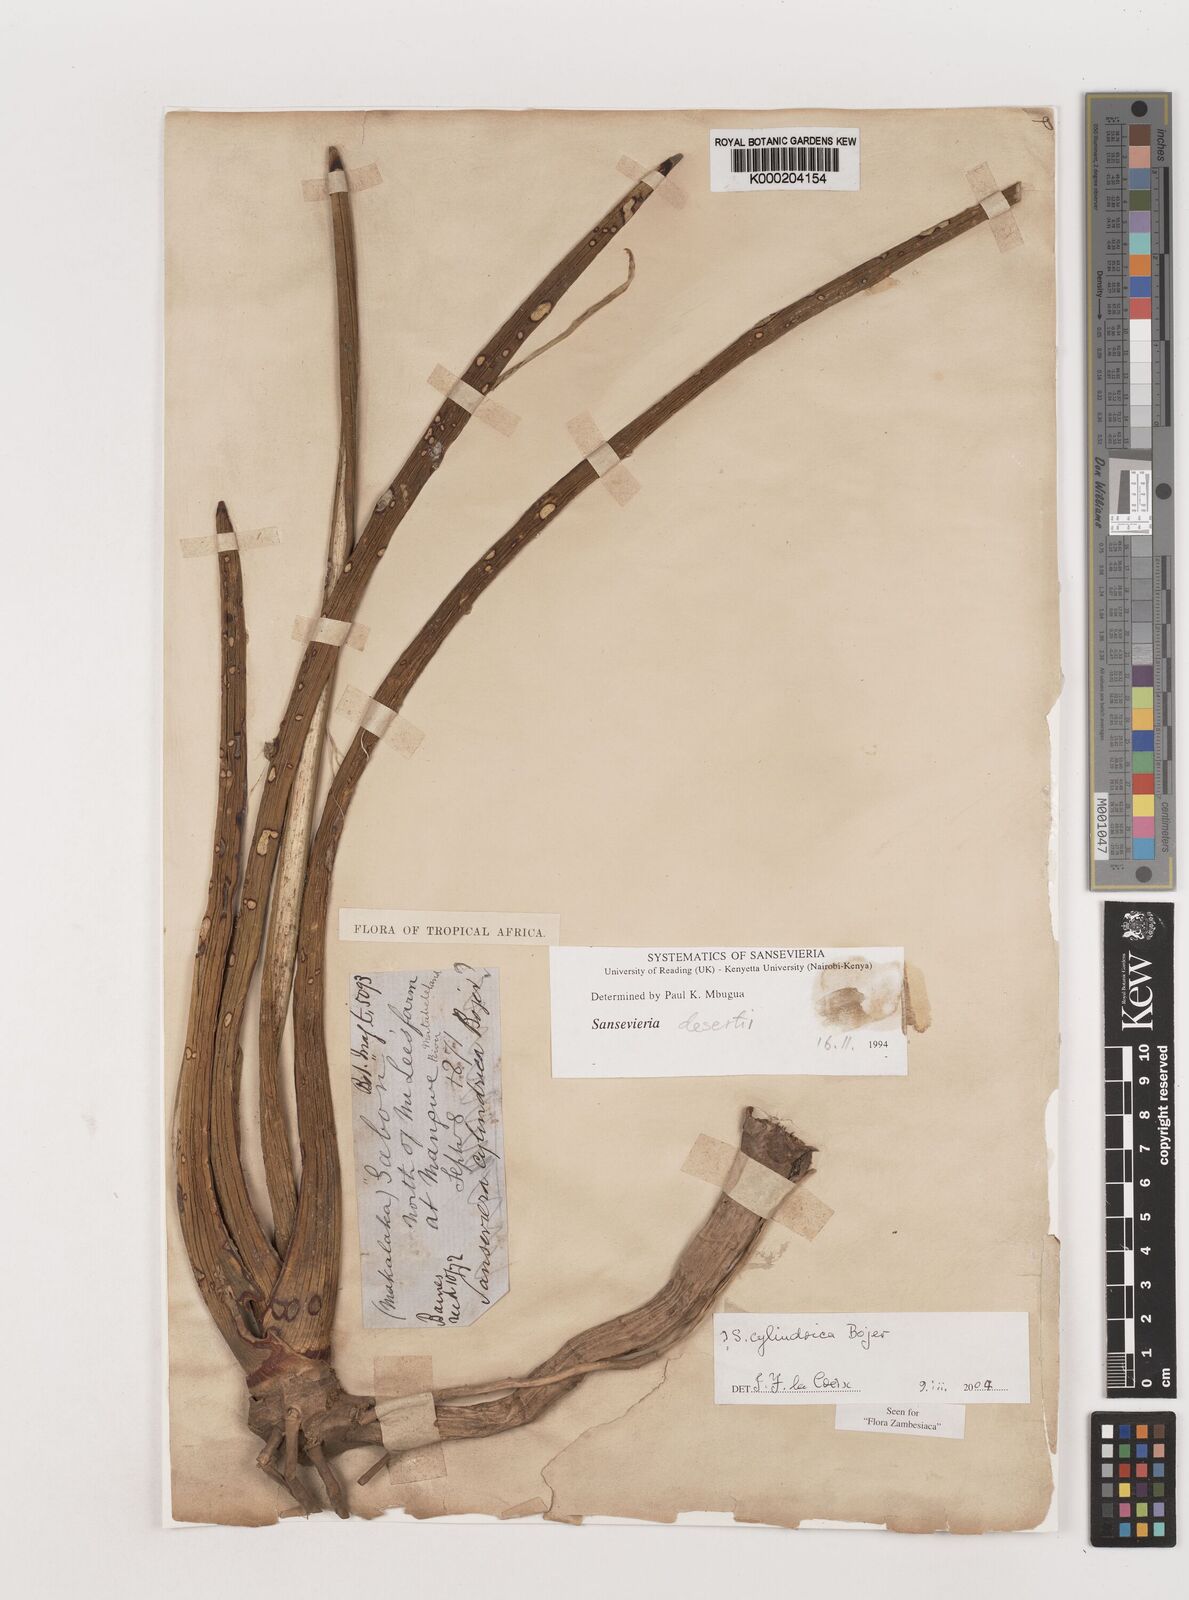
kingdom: Plantae
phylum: Tracheophyta
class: Liliopsida
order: Asparagales
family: Asparagaceae
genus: Dracaena
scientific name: Dracaena angolensis
